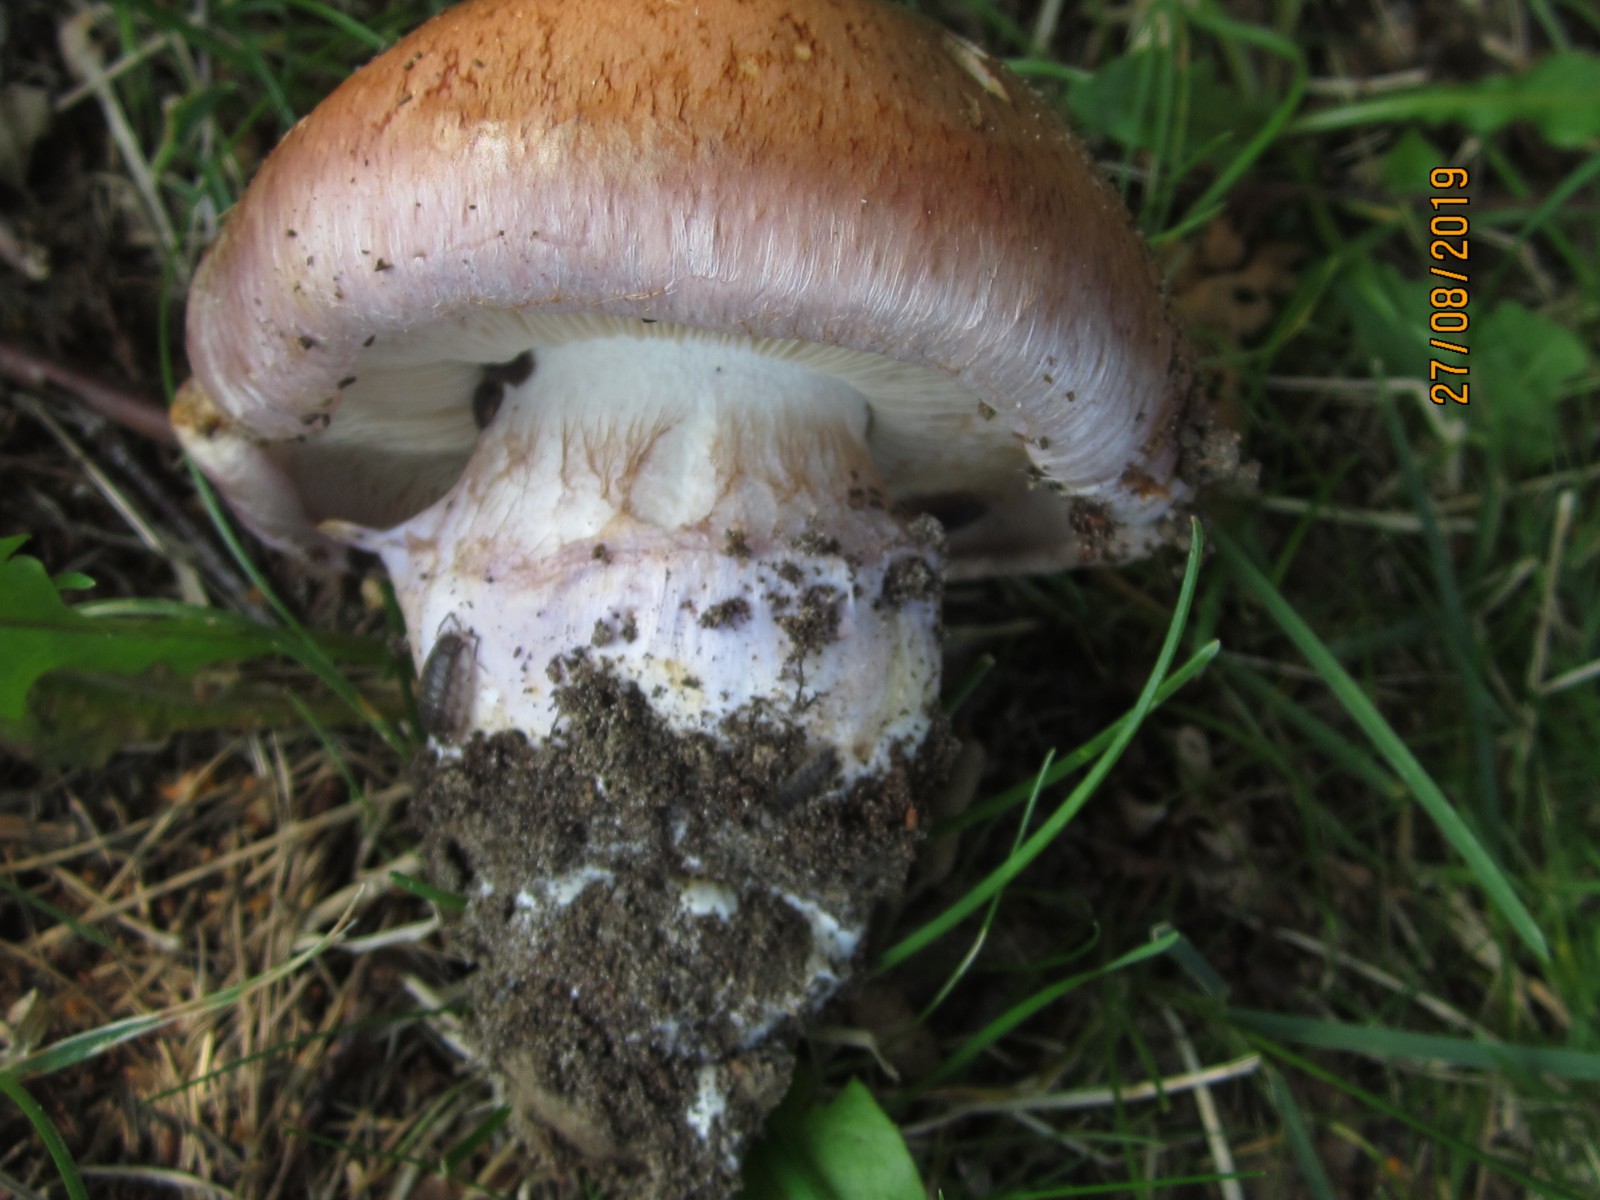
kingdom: Fungi
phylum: Basidiomycota
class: Agaricomycetes
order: Agaricales
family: Cortinariaceae
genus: Phlegmacium
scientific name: Phlegmacium balteatocumatile
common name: violettrådet slørhat
